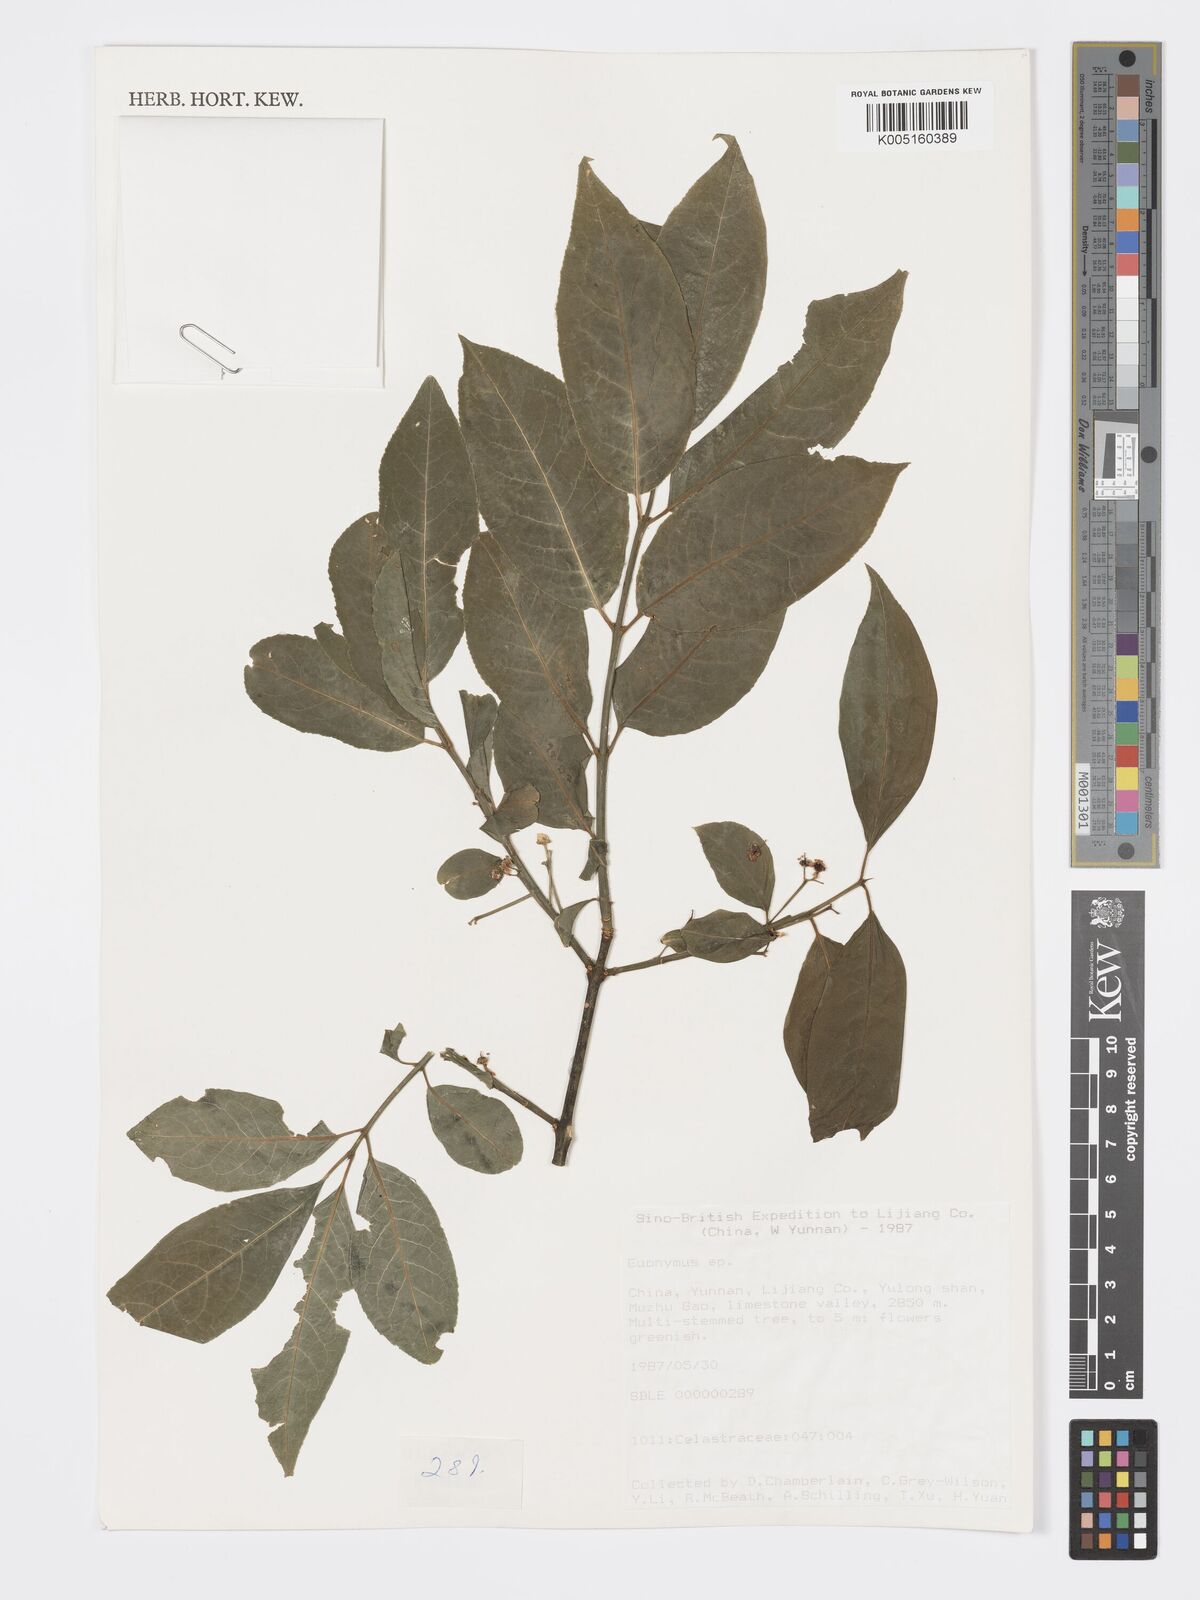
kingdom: Plantae
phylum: Tracheophyta
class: Magnoliopsida
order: Celastrales
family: Celastraceae
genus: Euonymus
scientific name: Euonymus
